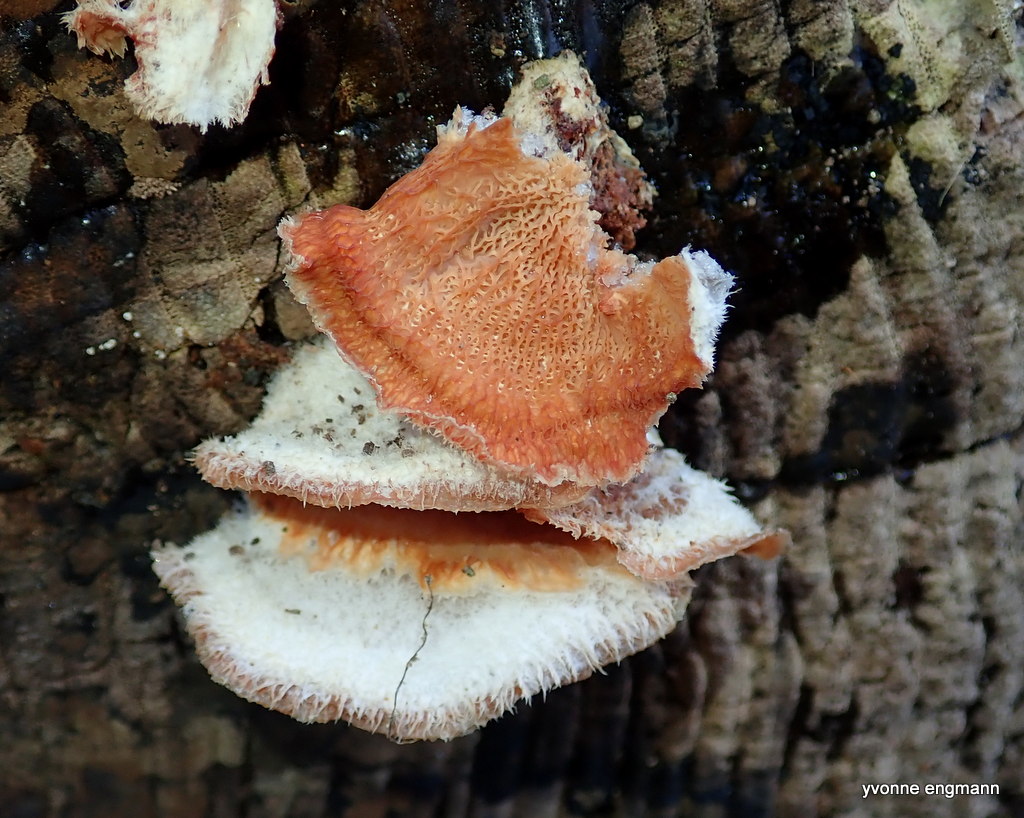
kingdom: Fungi
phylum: Basidiomycota
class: Agaricomycetes
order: Polyporales
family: Meruliaceae
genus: Phlebia
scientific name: Phlebia tremellosa
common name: bævrende åresvamp
